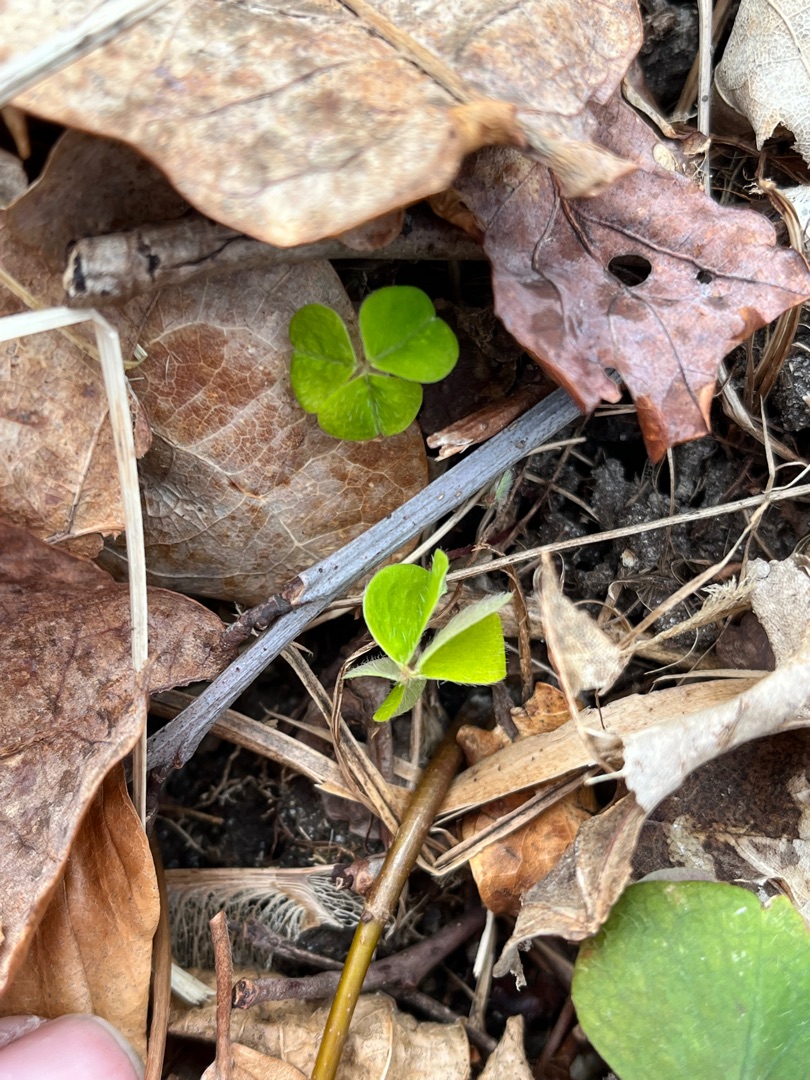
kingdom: Plantae
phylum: Tracheophyta
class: Magnoliopsida
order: Oxalidales
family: Oxalidaceae
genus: Oxalis
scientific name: Oxalis acetosella
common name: Skovsyre
